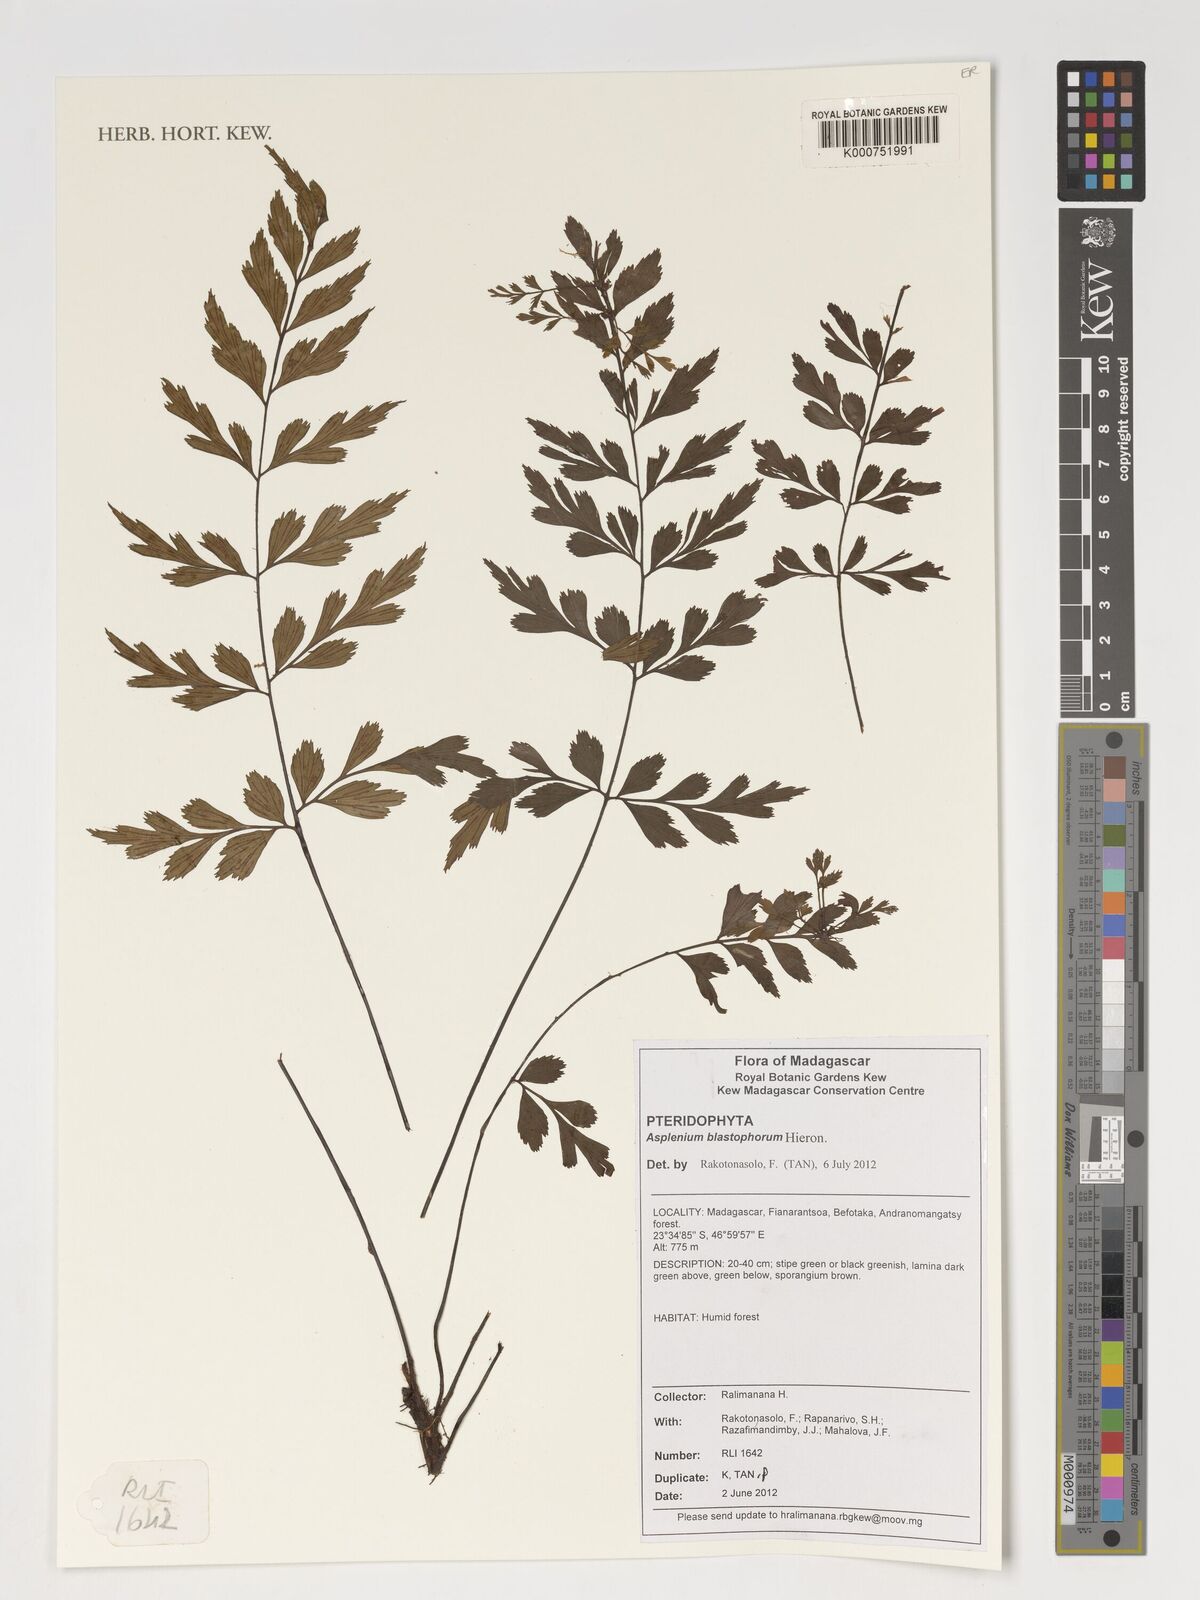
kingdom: Plantae
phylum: Tracheophyta
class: Polypodiopsida
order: Polypodiales
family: Aspleniaceae
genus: Asplenium
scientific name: Asplenium blastophorum
